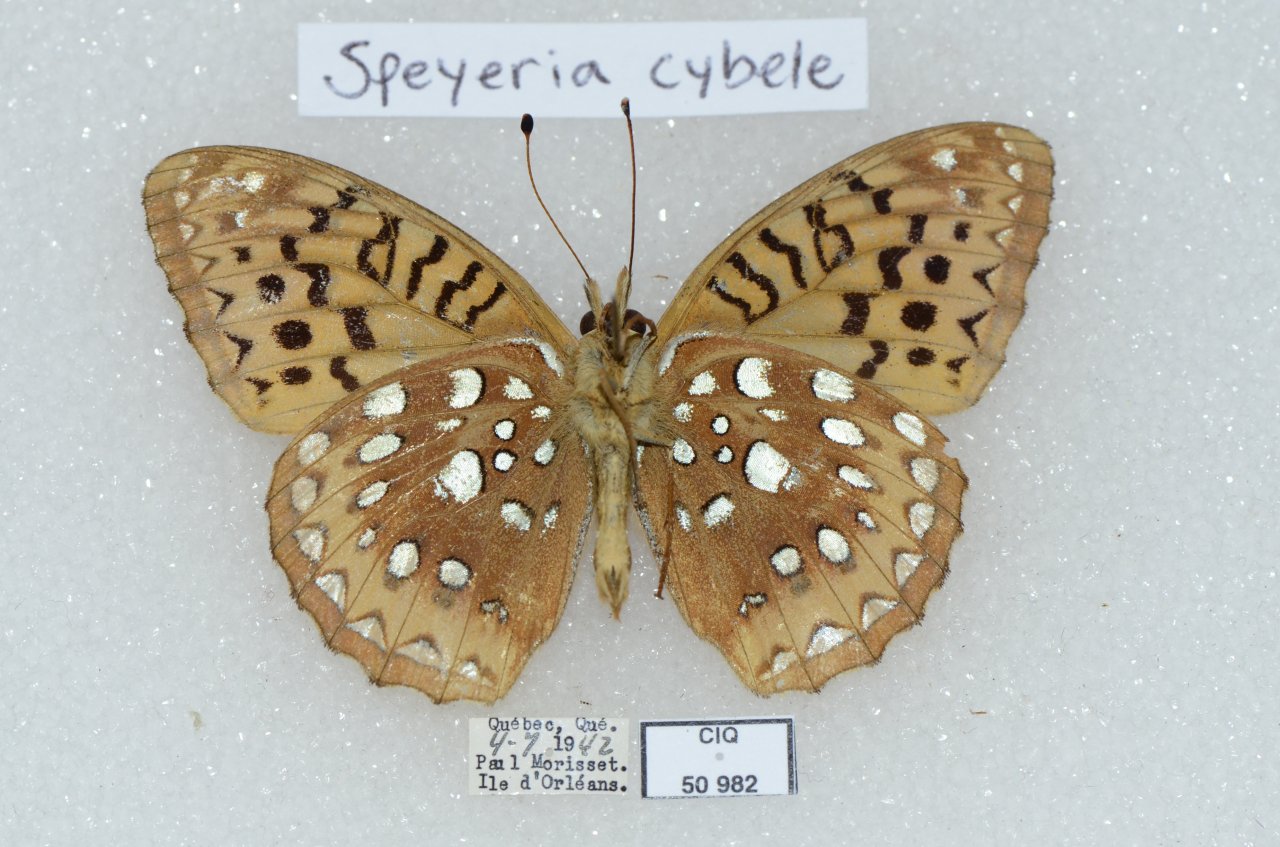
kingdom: Animalia
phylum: Arthropoda
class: Insecta
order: Lepidoptera
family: Nymphalidae
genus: Speyeria
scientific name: Speyeria cybele
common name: Great Spangled Fritillary
